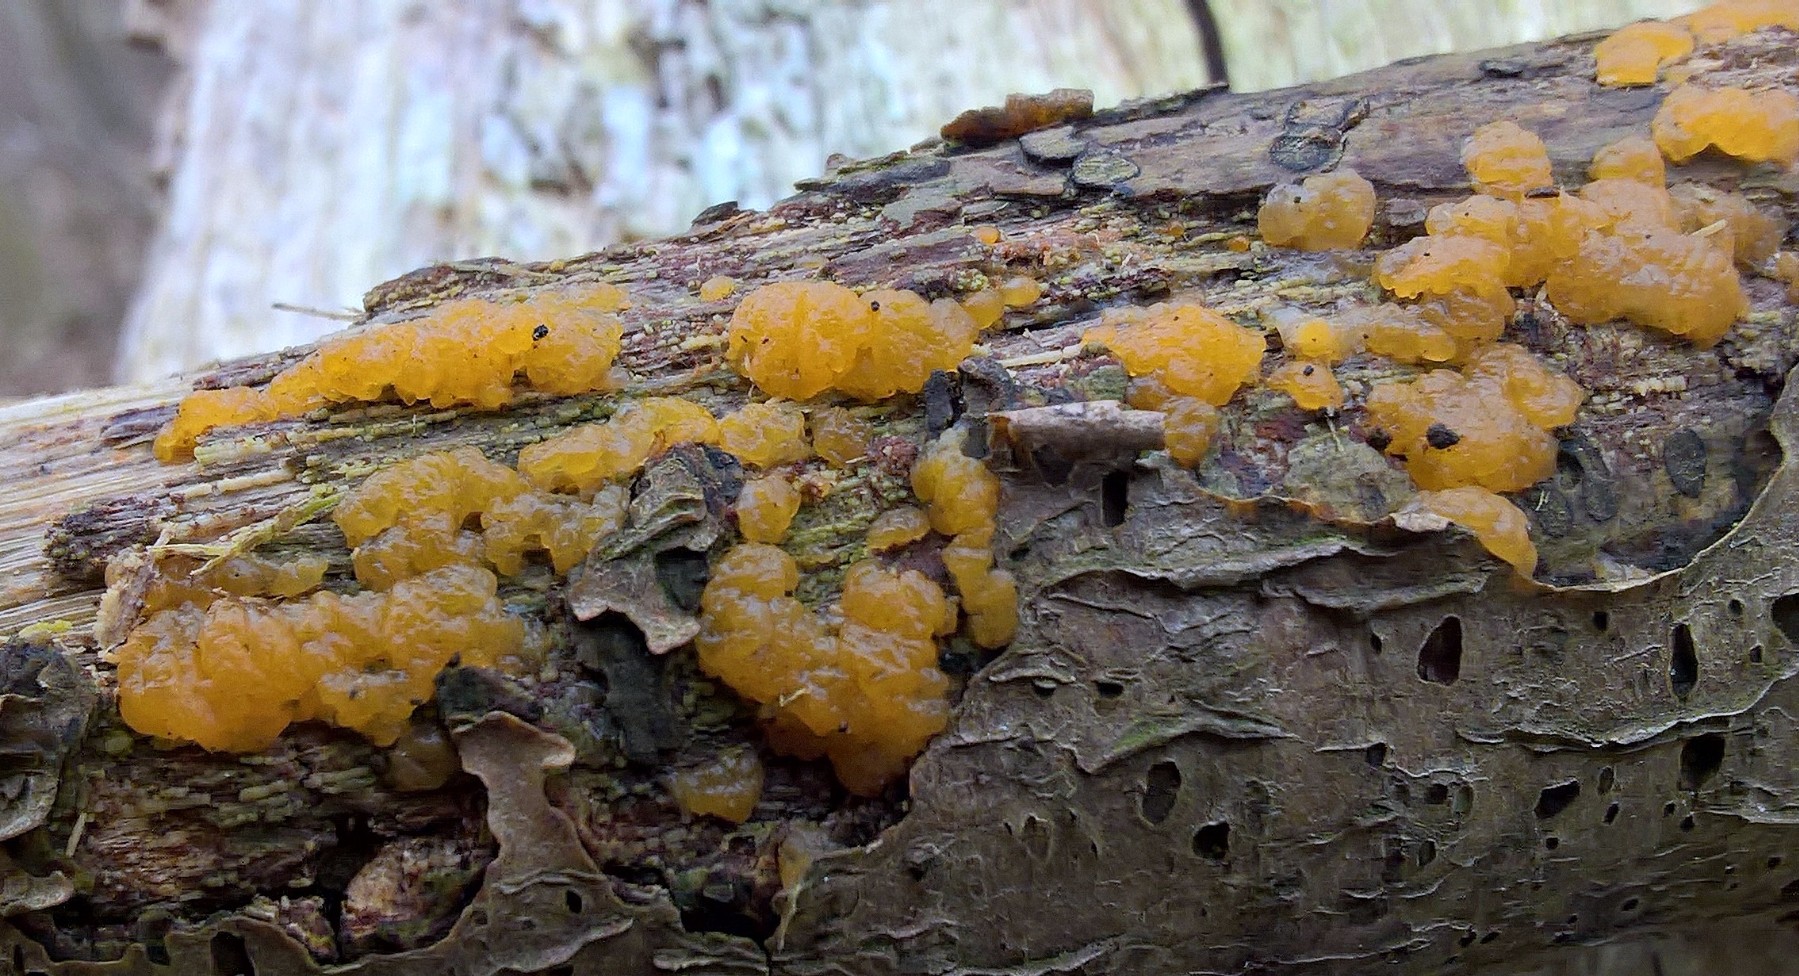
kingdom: Fungi
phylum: Basidiomycota
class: Dacrymycetes
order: Dacrymycetales
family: Dacrymycetaceae
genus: Dacrymyces
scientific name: Dacrymyces lacrymalis
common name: rynket tåresvamp
